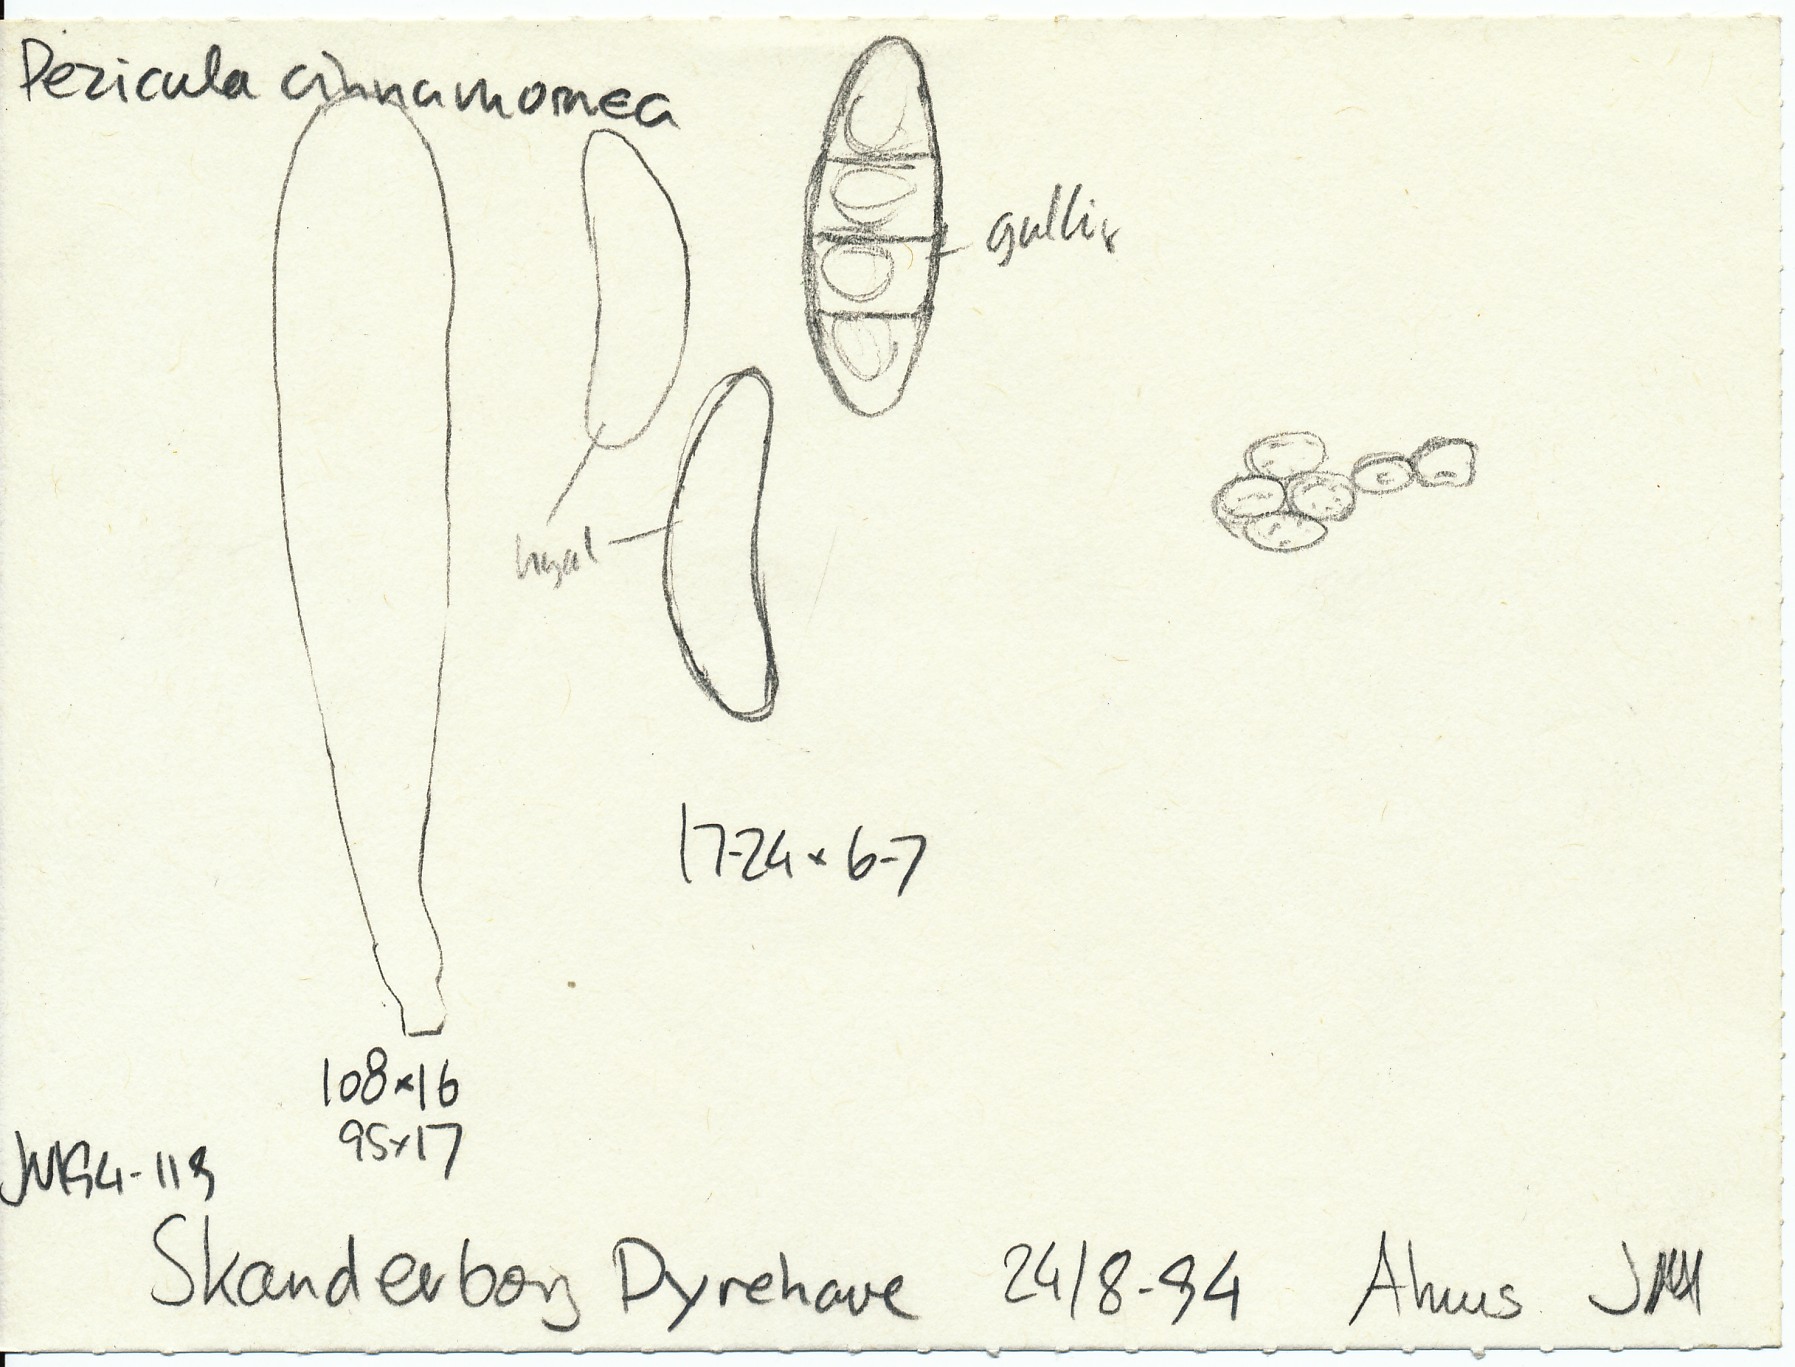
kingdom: Fungi
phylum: Ascomycota
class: Dothideomycetes
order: Pleosporales
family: Melanommataceae
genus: Melanomma
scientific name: Melanomma pulvis-pyrius
